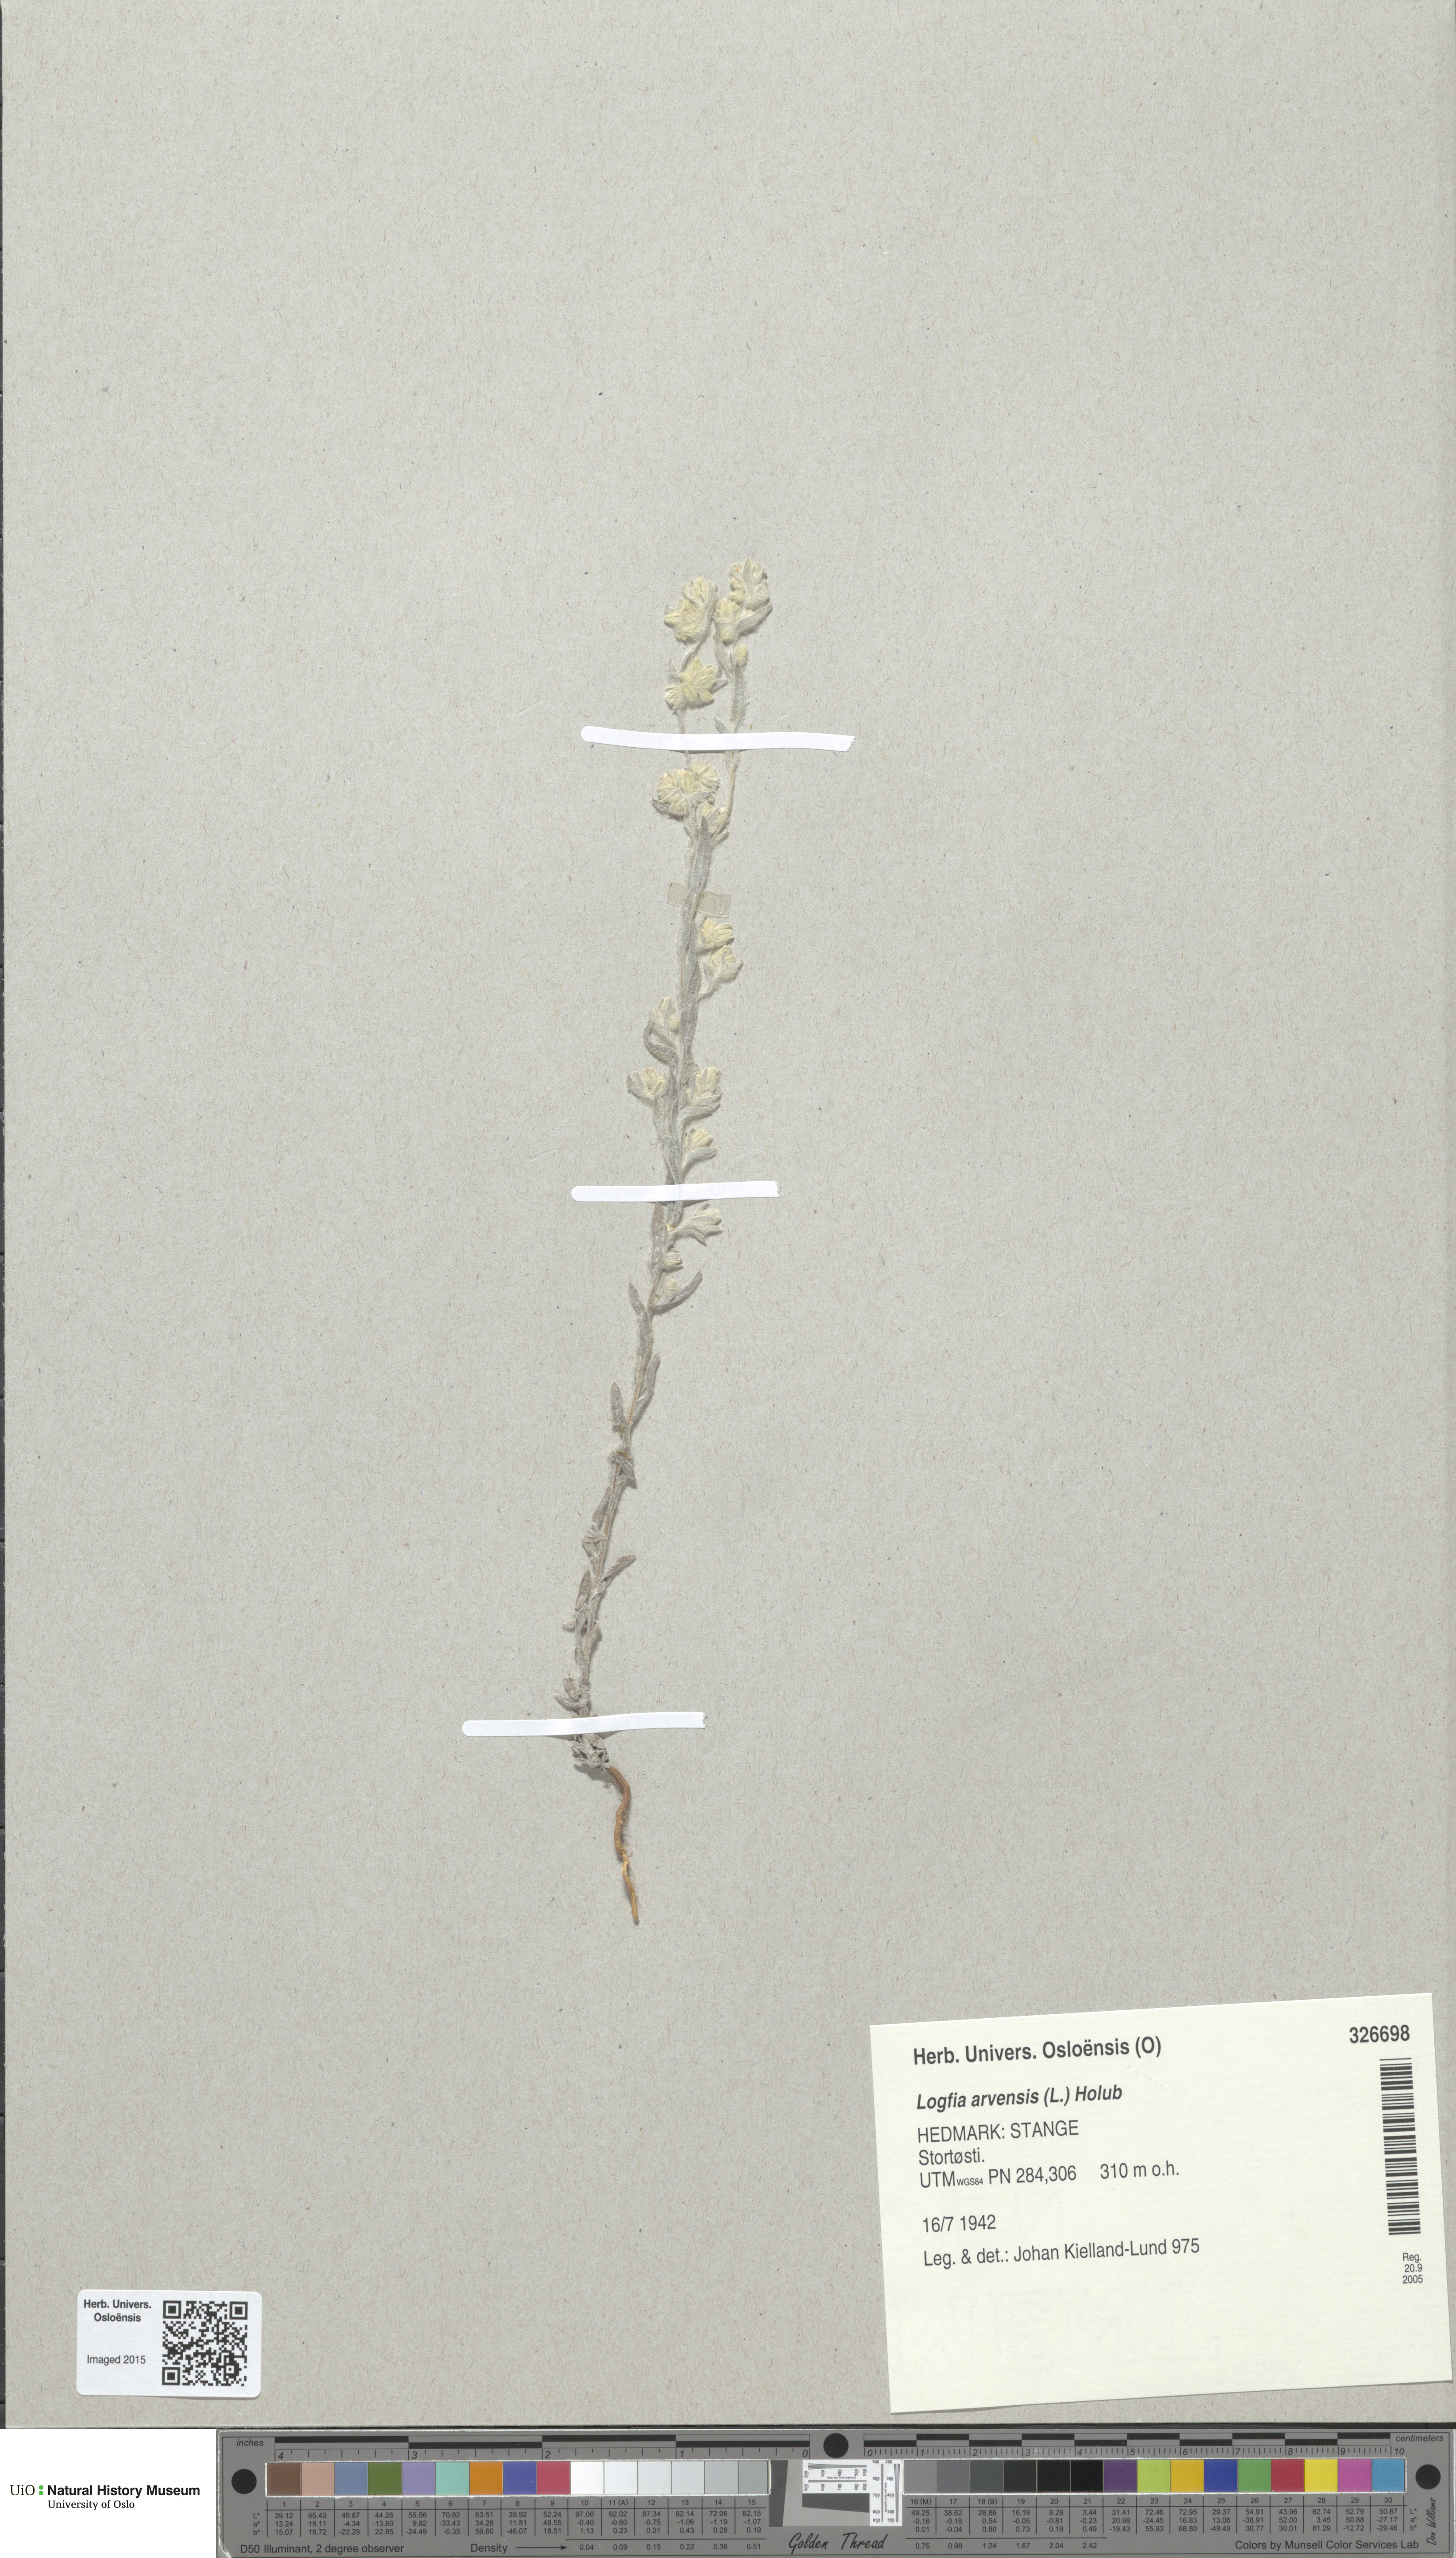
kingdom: Plantae
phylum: Tracheophyta
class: Magnoliopsida
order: Asterales
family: Asteraceae
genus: Filago
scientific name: Filago arvensis
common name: Field cudweed
